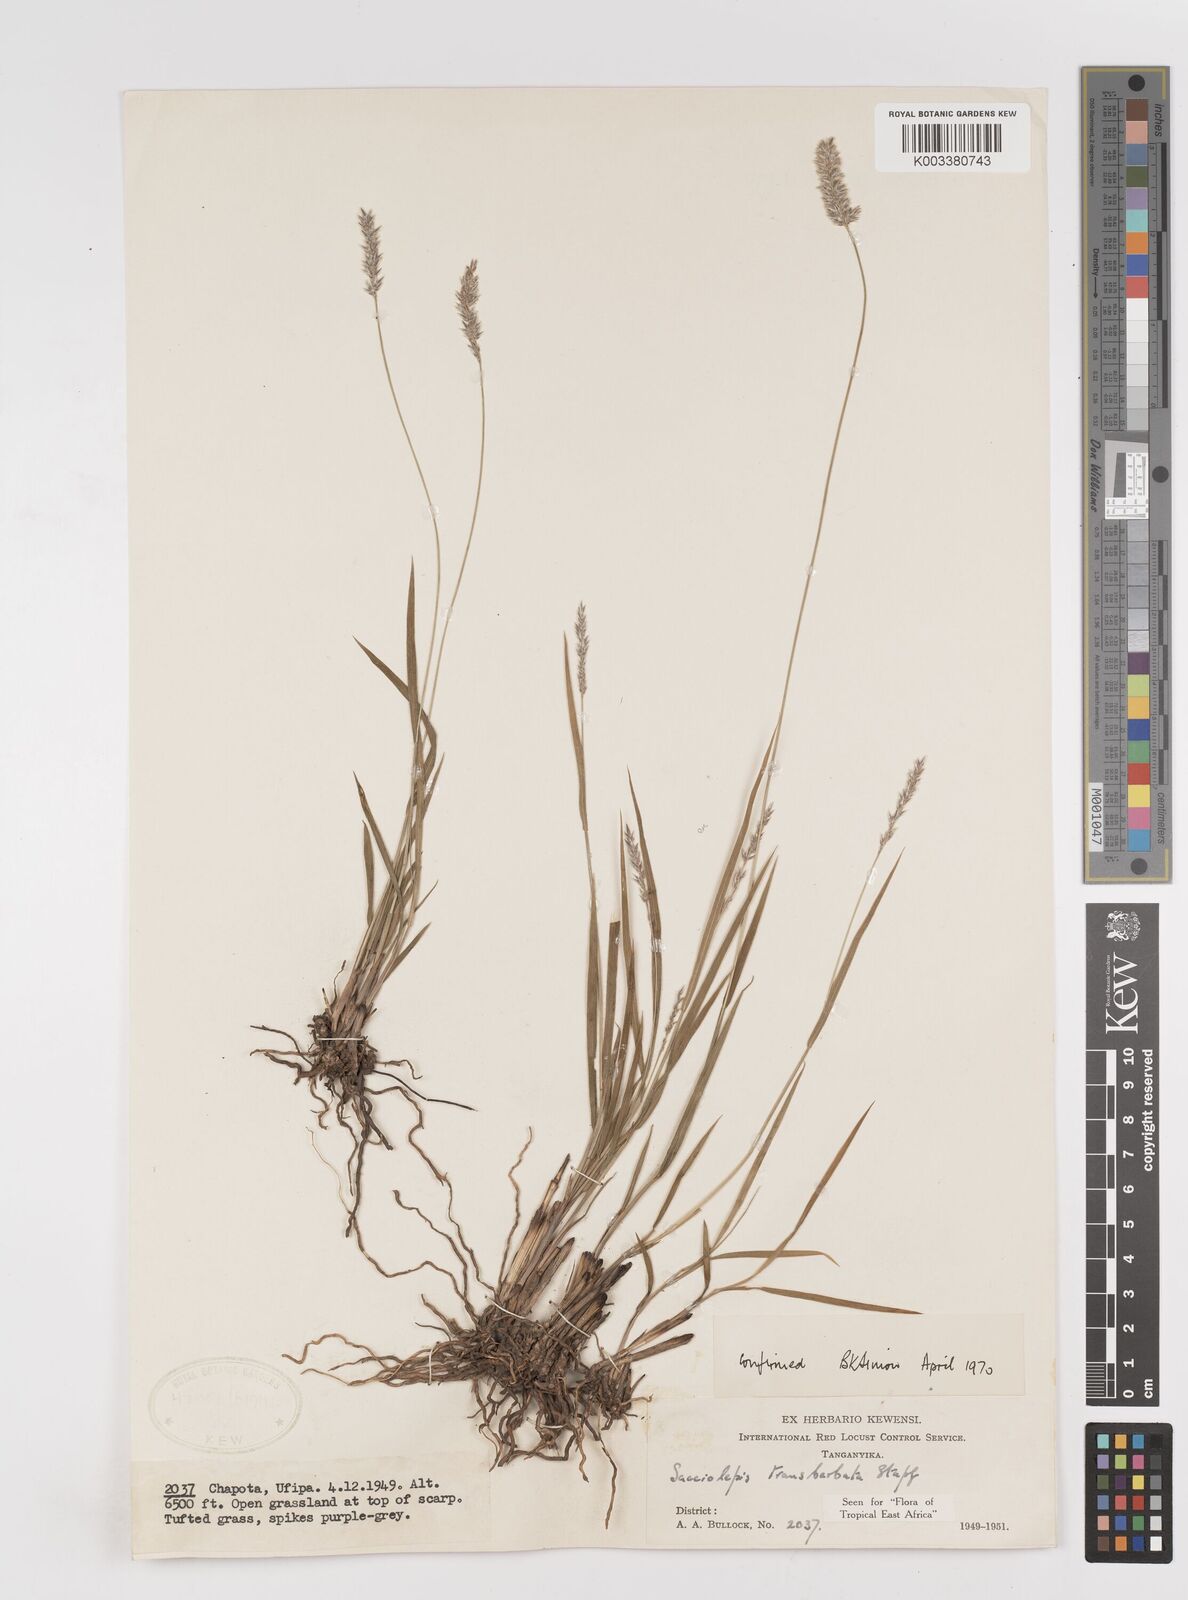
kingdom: Plantae
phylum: Tracheophyta
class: Liliopsida
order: Poales
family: Poaceae
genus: Sacciolepis
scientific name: Sacciolepis transbarbata
